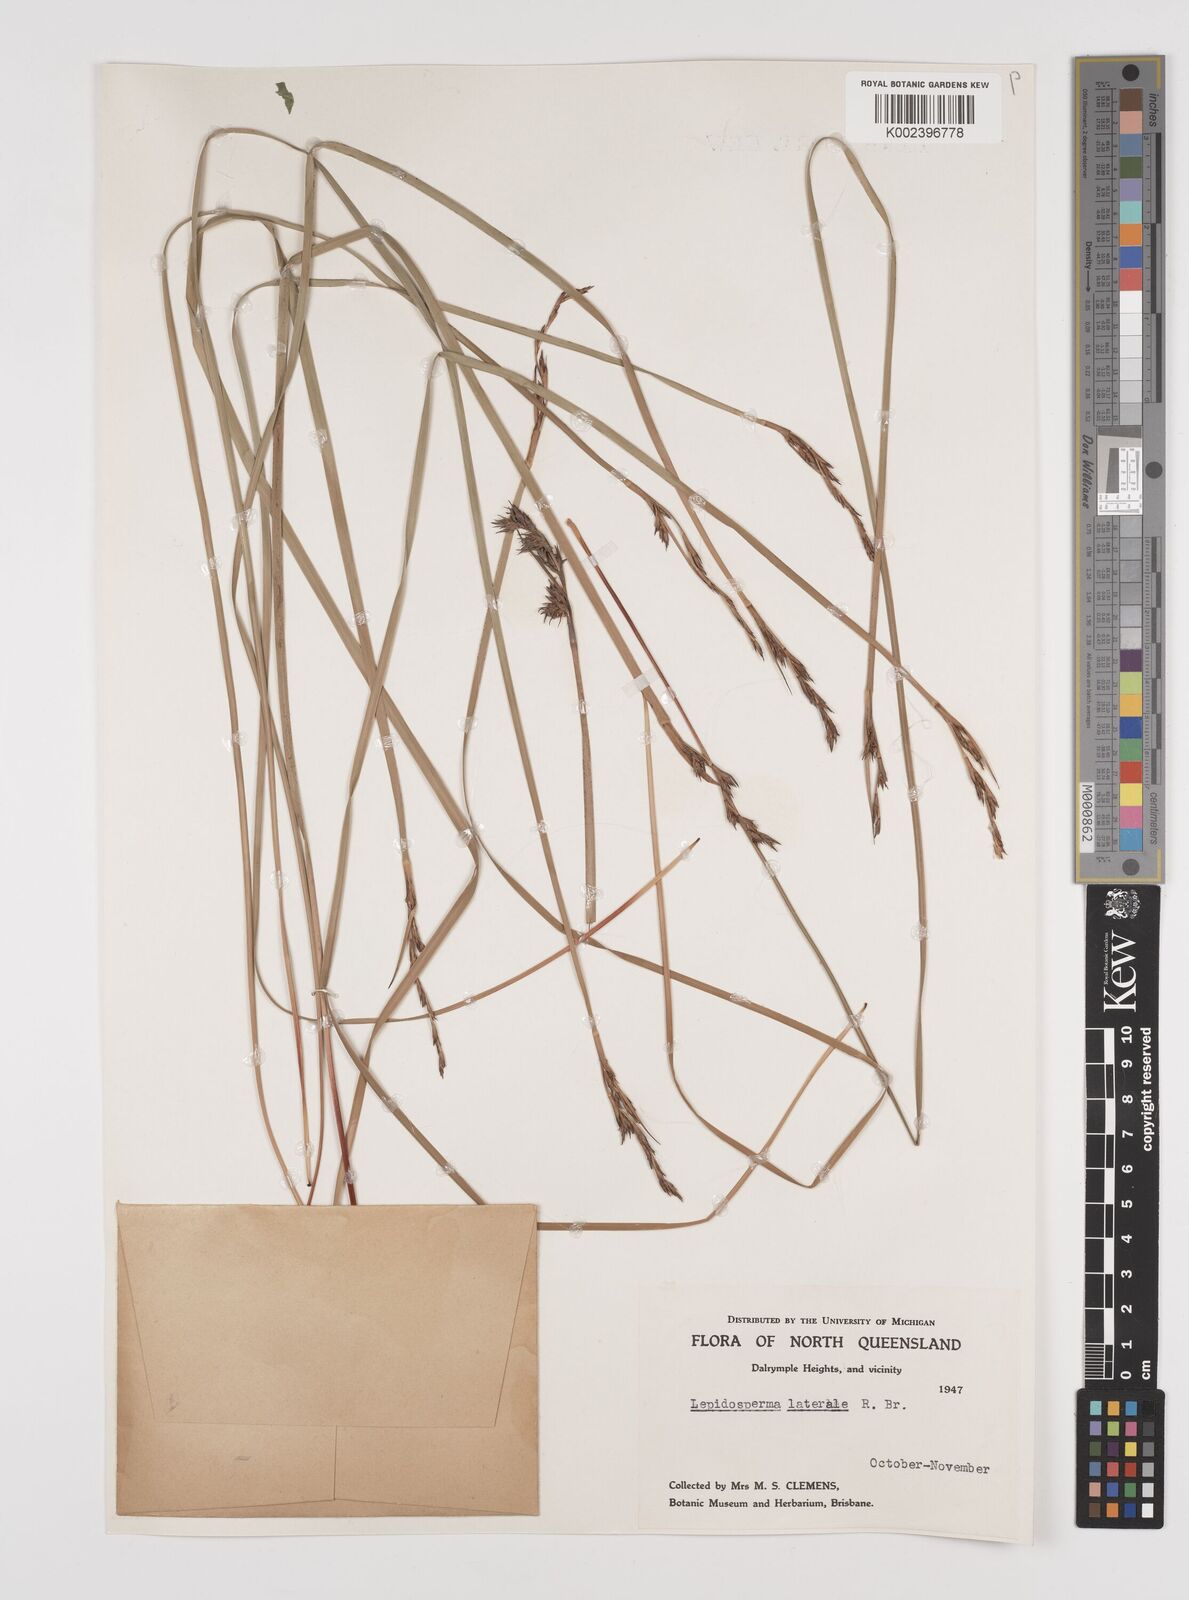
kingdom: Plantae
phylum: Tracheophyta
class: Liliopsida
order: Poales
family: Cyperaceae
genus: Lepidosperma
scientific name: Lepidosperma laterale
